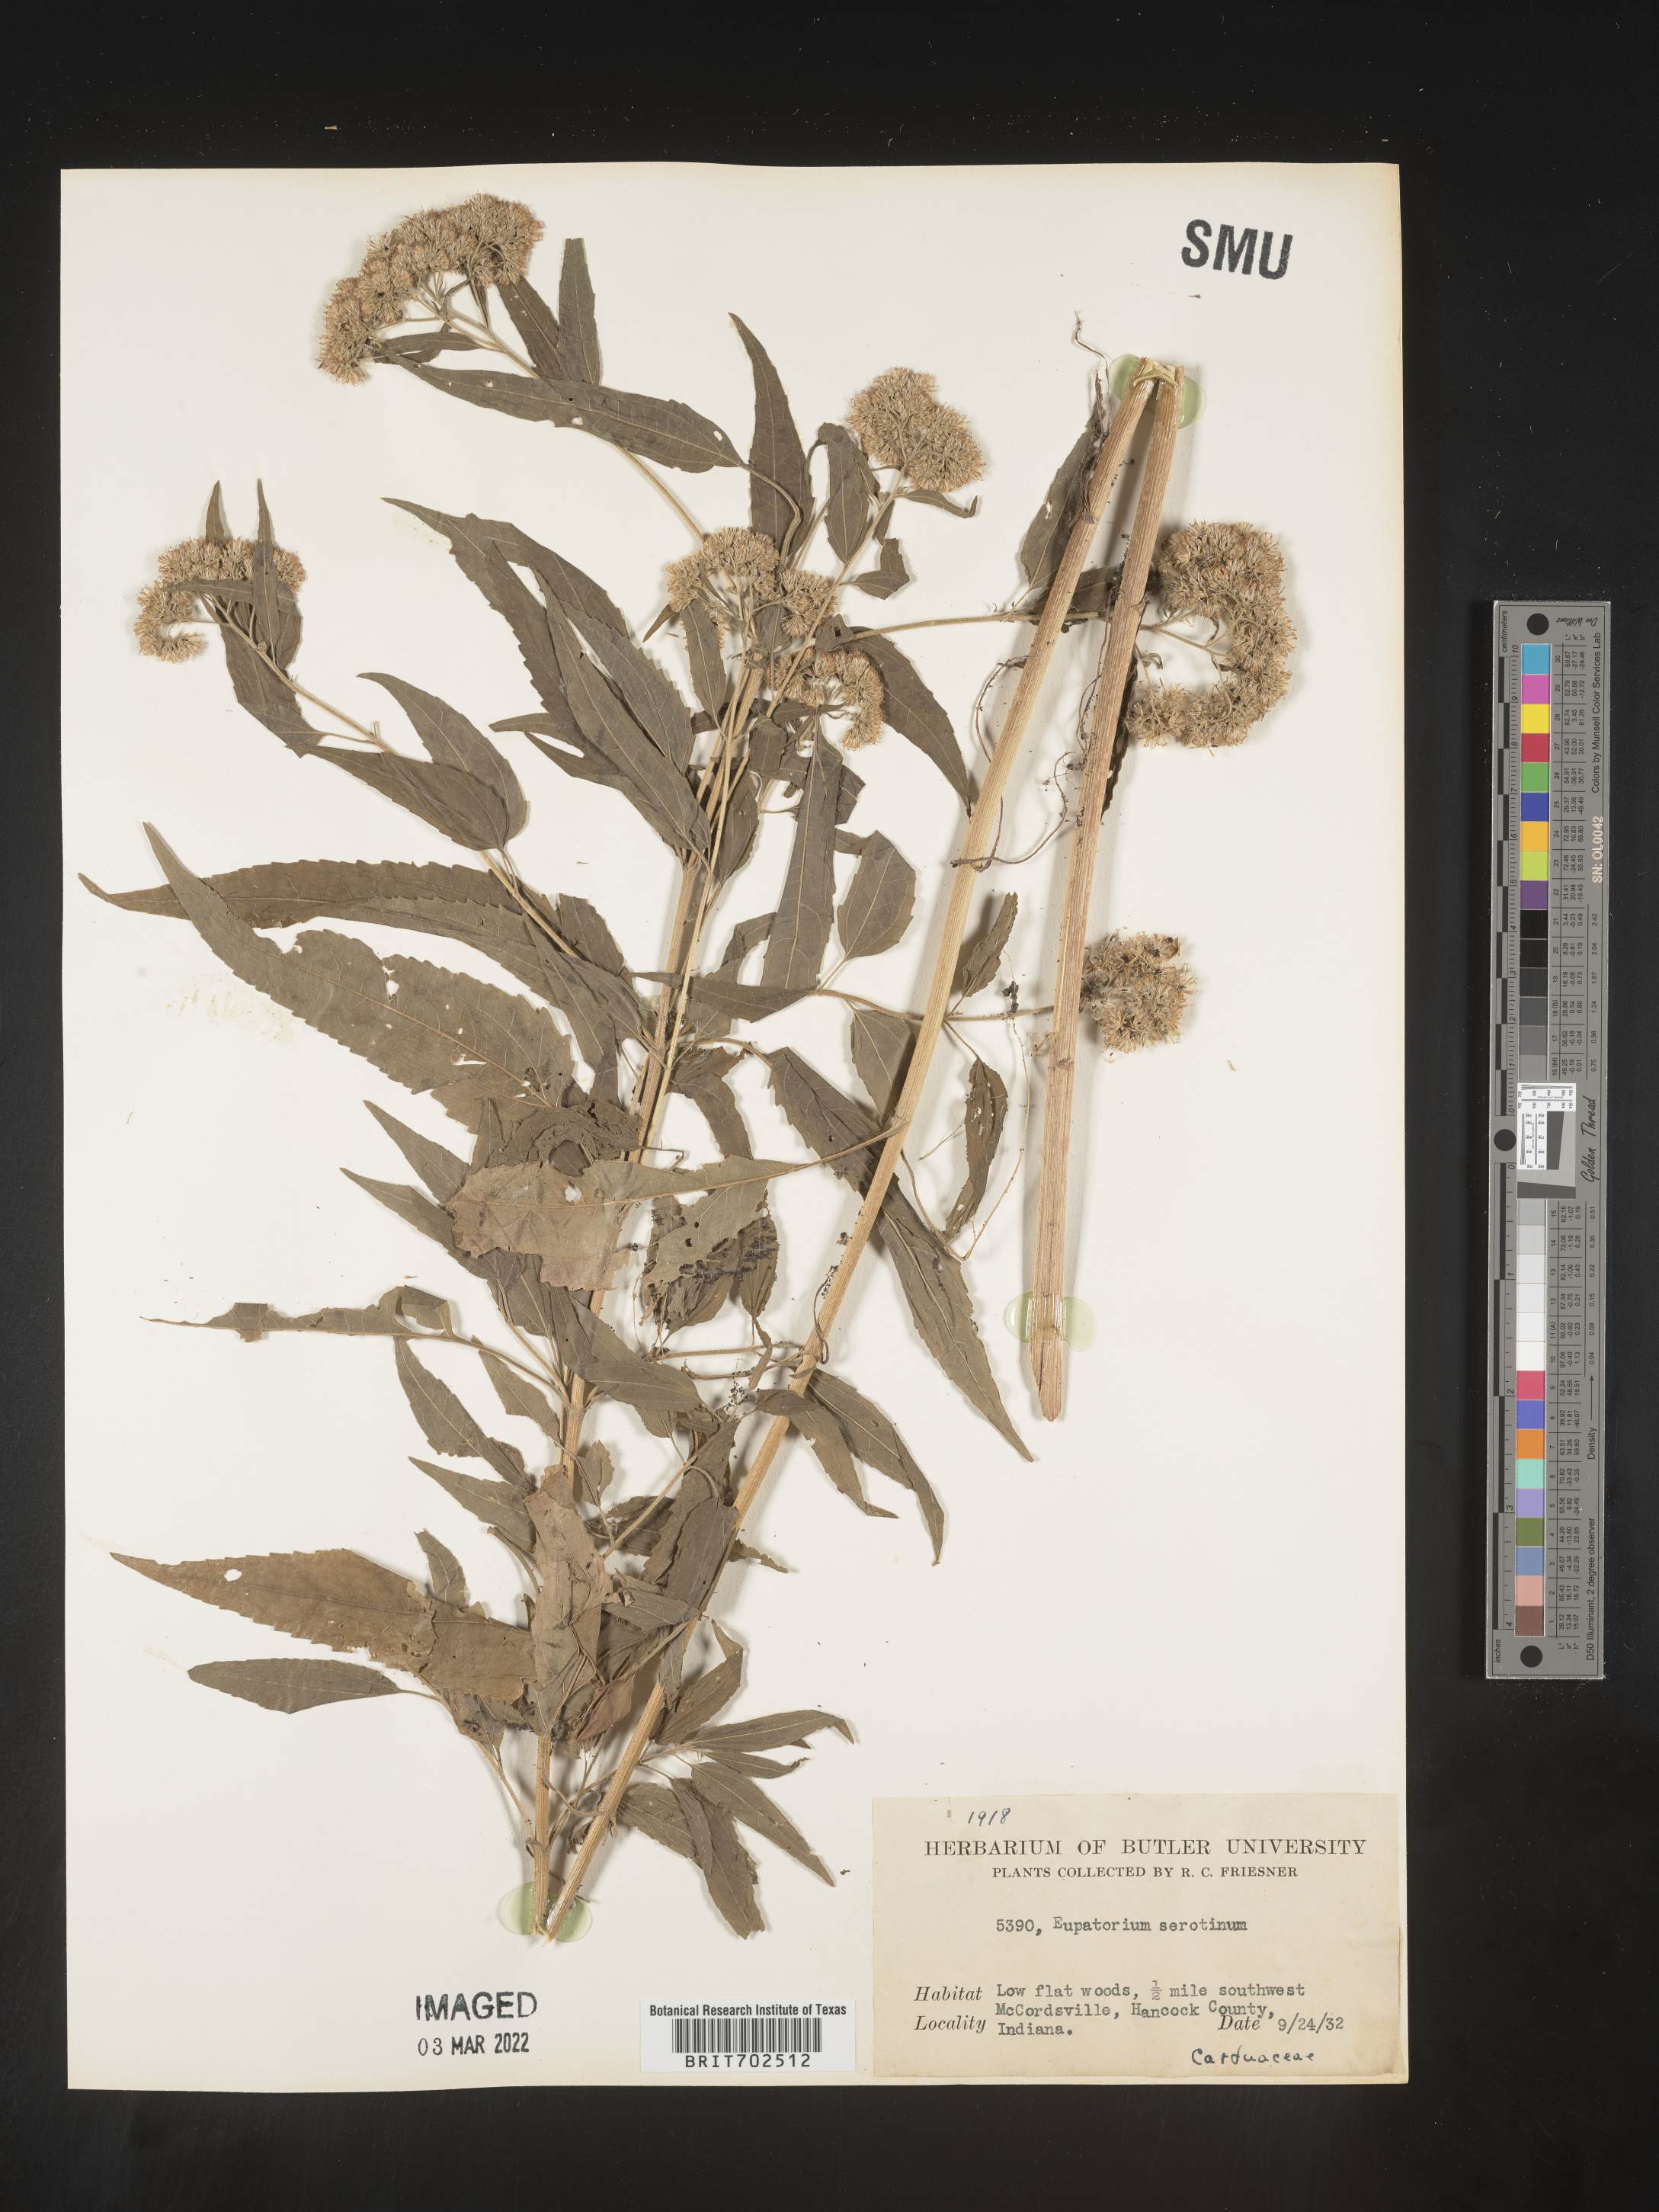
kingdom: Plantae
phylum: Tracheophyta
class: Magnoliopsida
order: Asterales
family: Asteraceae
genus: Eupatorium
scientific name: Eupatorium serotinum
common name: Late boneset
